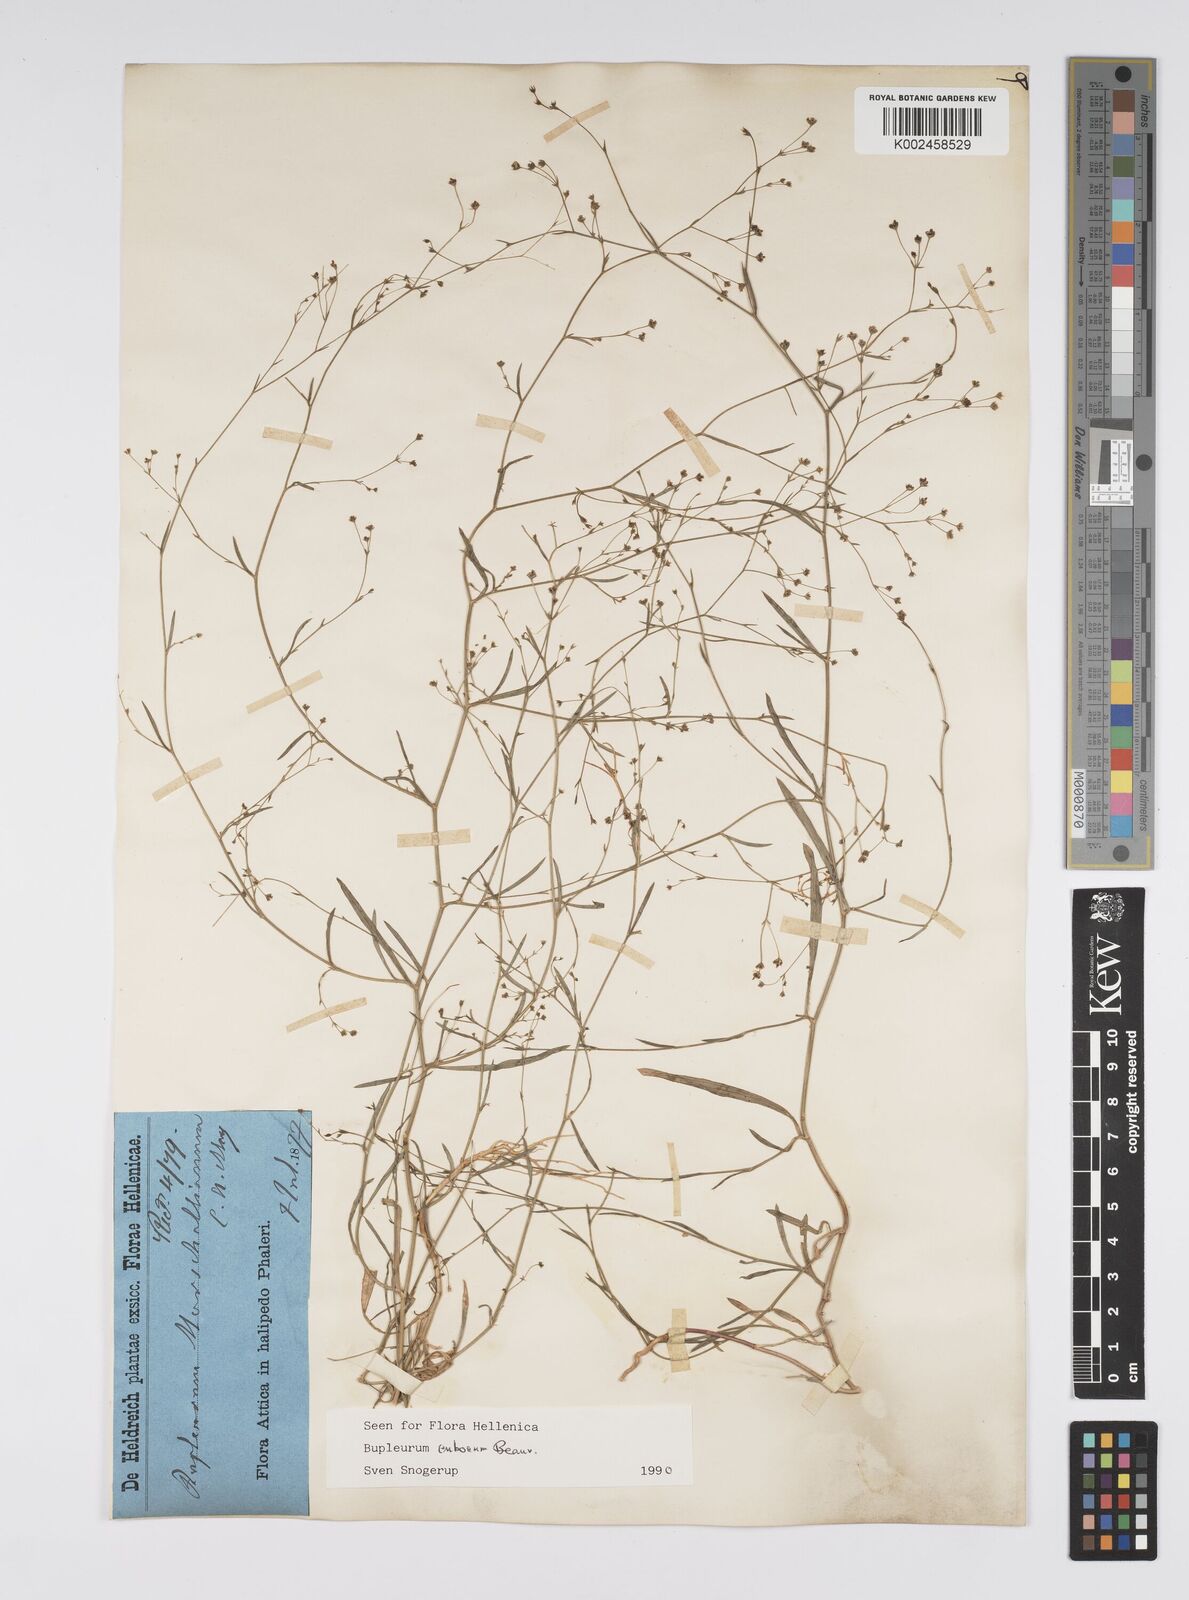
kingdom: Plantae
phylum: Tracheophyta
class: Magnoliopsida
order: Apiales
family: Apiaceae
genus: Bupleurum
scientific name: Bupleurum tenuissimum
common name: Slender hare's-ear
